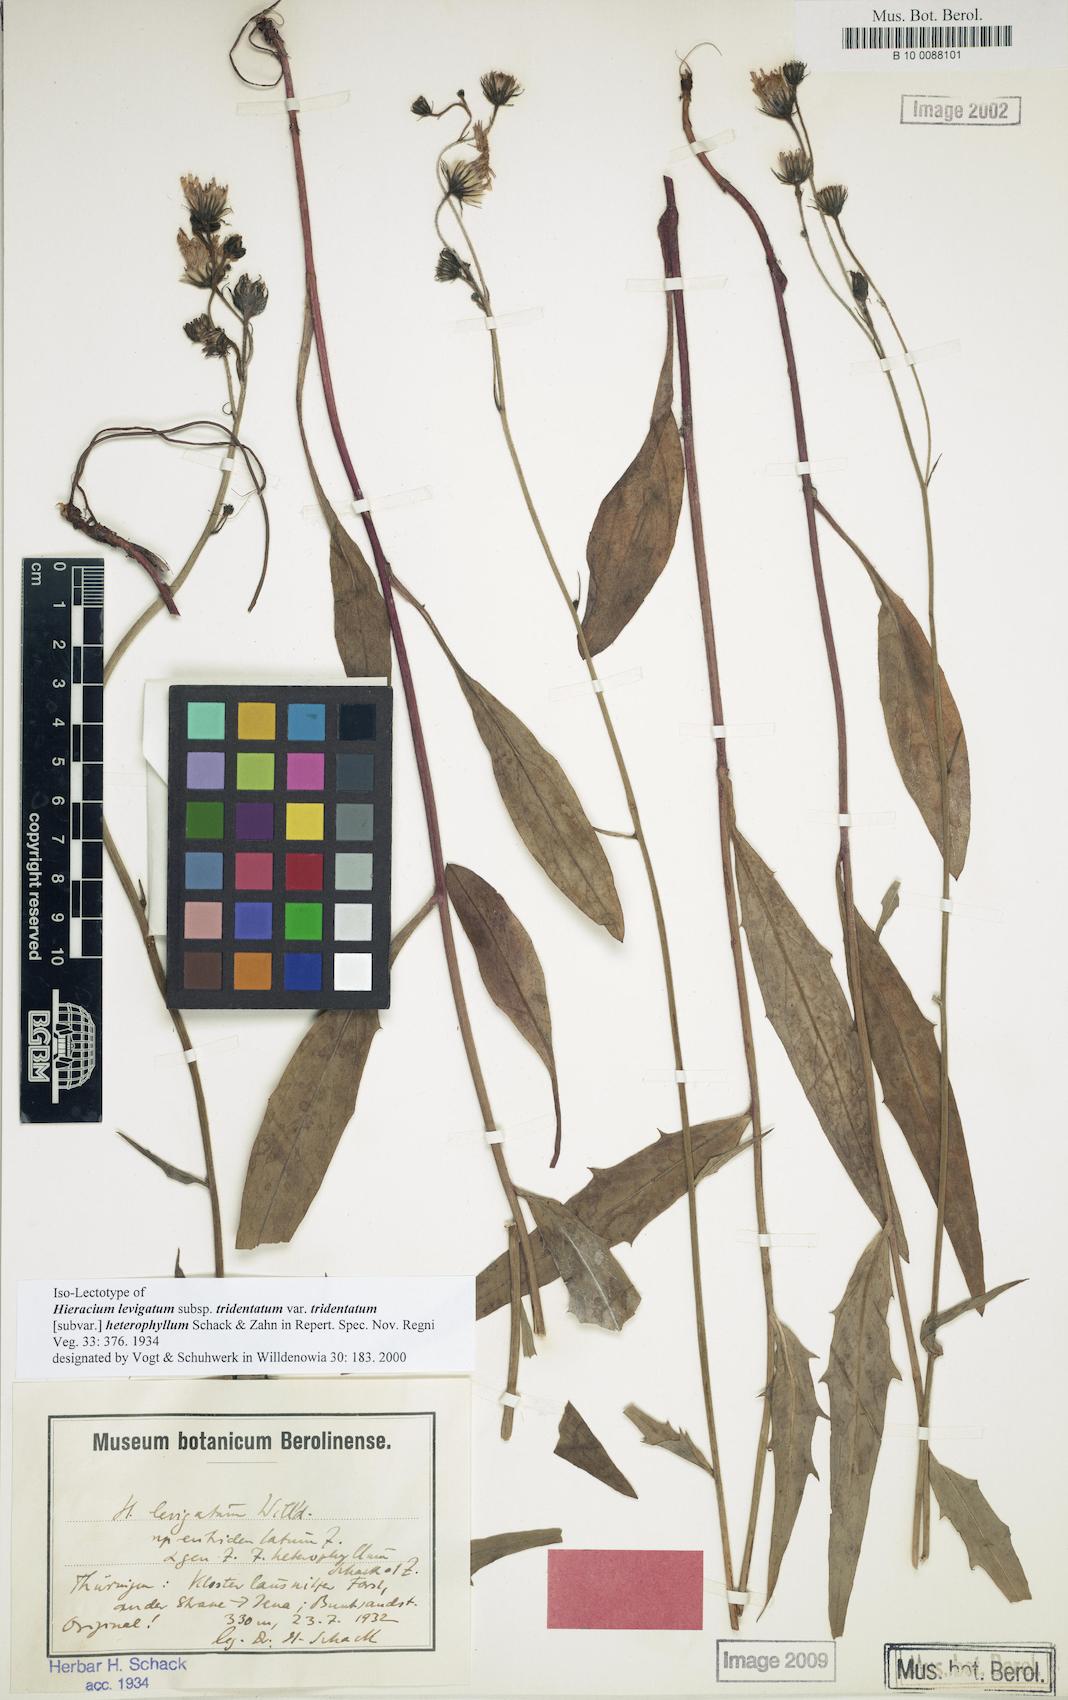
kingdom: Plantae
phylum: Tracheophyta
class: Magnoliopsida
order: Asterales
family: Asteraceae
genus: Hieracium
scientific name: Hieracium laevigatum
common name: Smooth hawkweed
